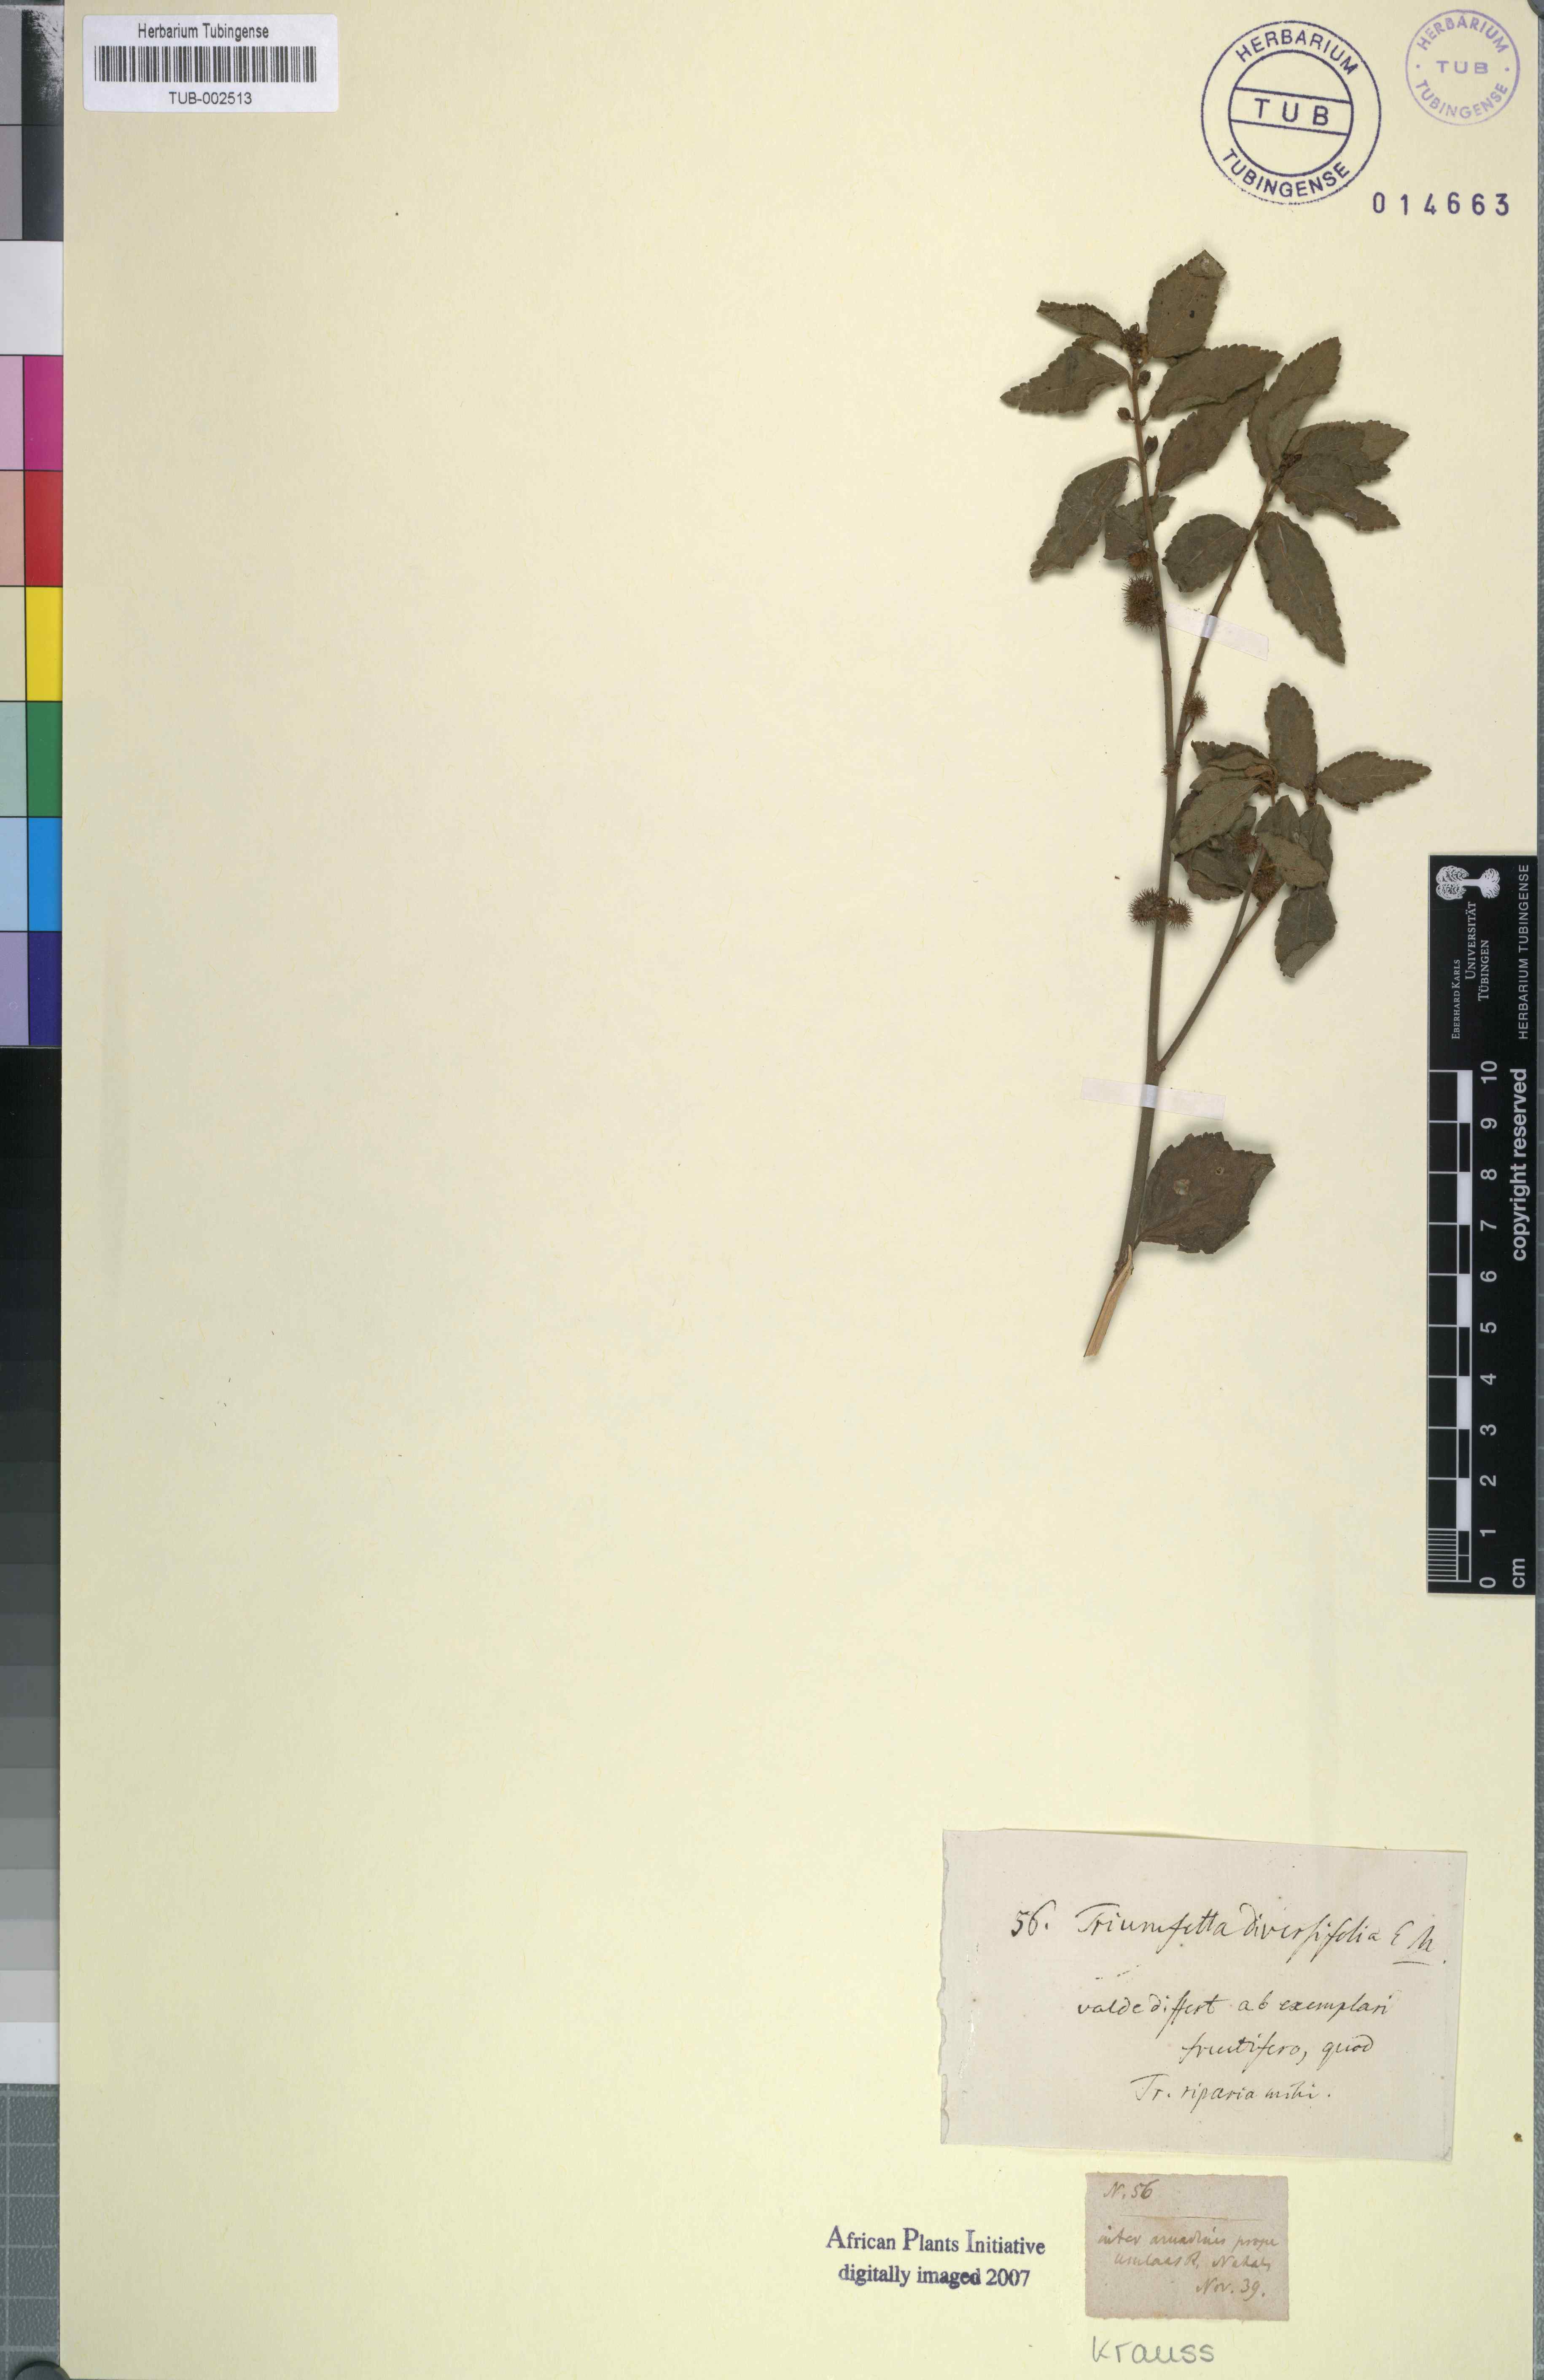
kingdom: Plantae
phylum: Tracheophyta
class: Magnoliopsida
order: Malvales
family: Malvaceae
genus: Triumfetta
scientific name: Triumfetta rhomboidea
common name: Diamond burbark
